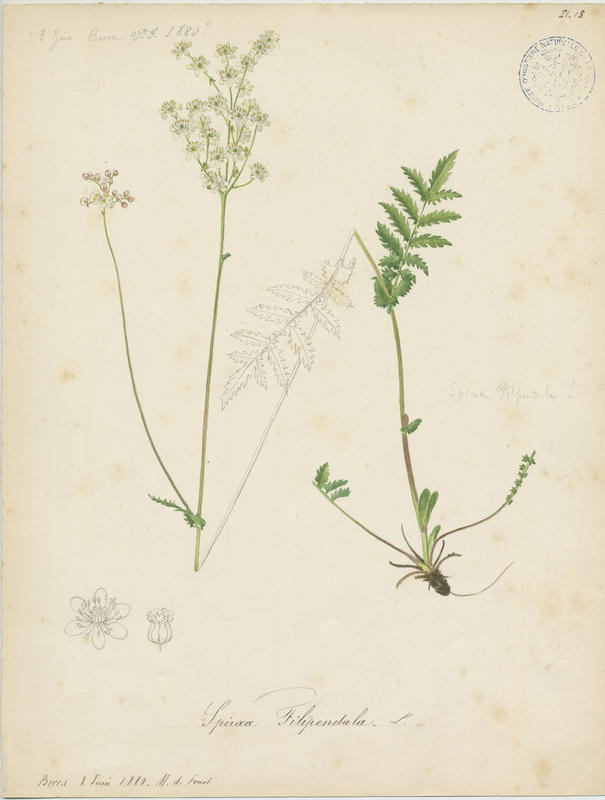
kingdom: Plantae
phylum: Tracheophyta
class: Magnoliopsida
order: Rosales
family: Rosaceae
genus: Filipendula
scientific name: Filipendula vulgaris
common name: Dropwort
